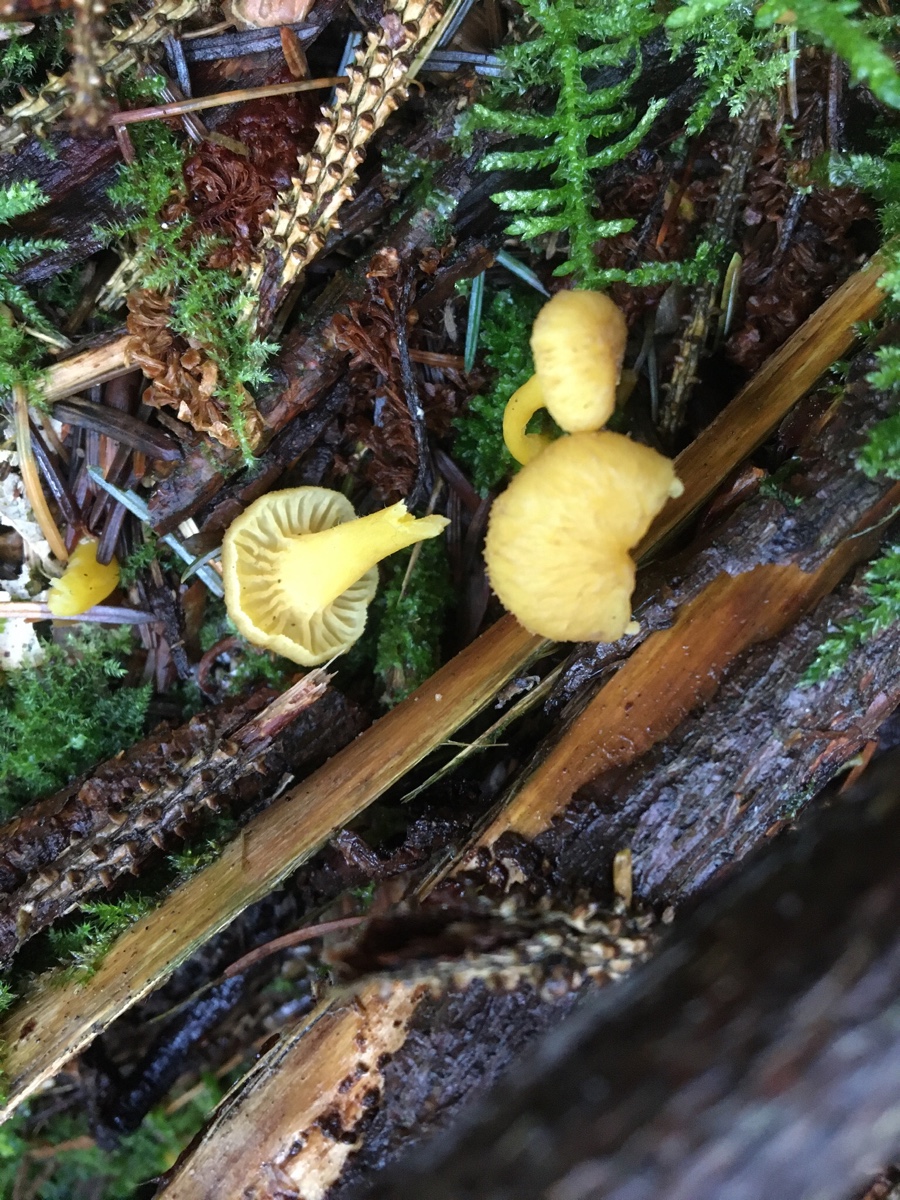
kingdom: Fungi
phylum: Basidiomycota
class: Agaricomycetes
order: Cantharellales
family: Hydnaceae
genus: Craterellus
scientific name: Craterellus tubaeformis
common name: tragt-kantarel
